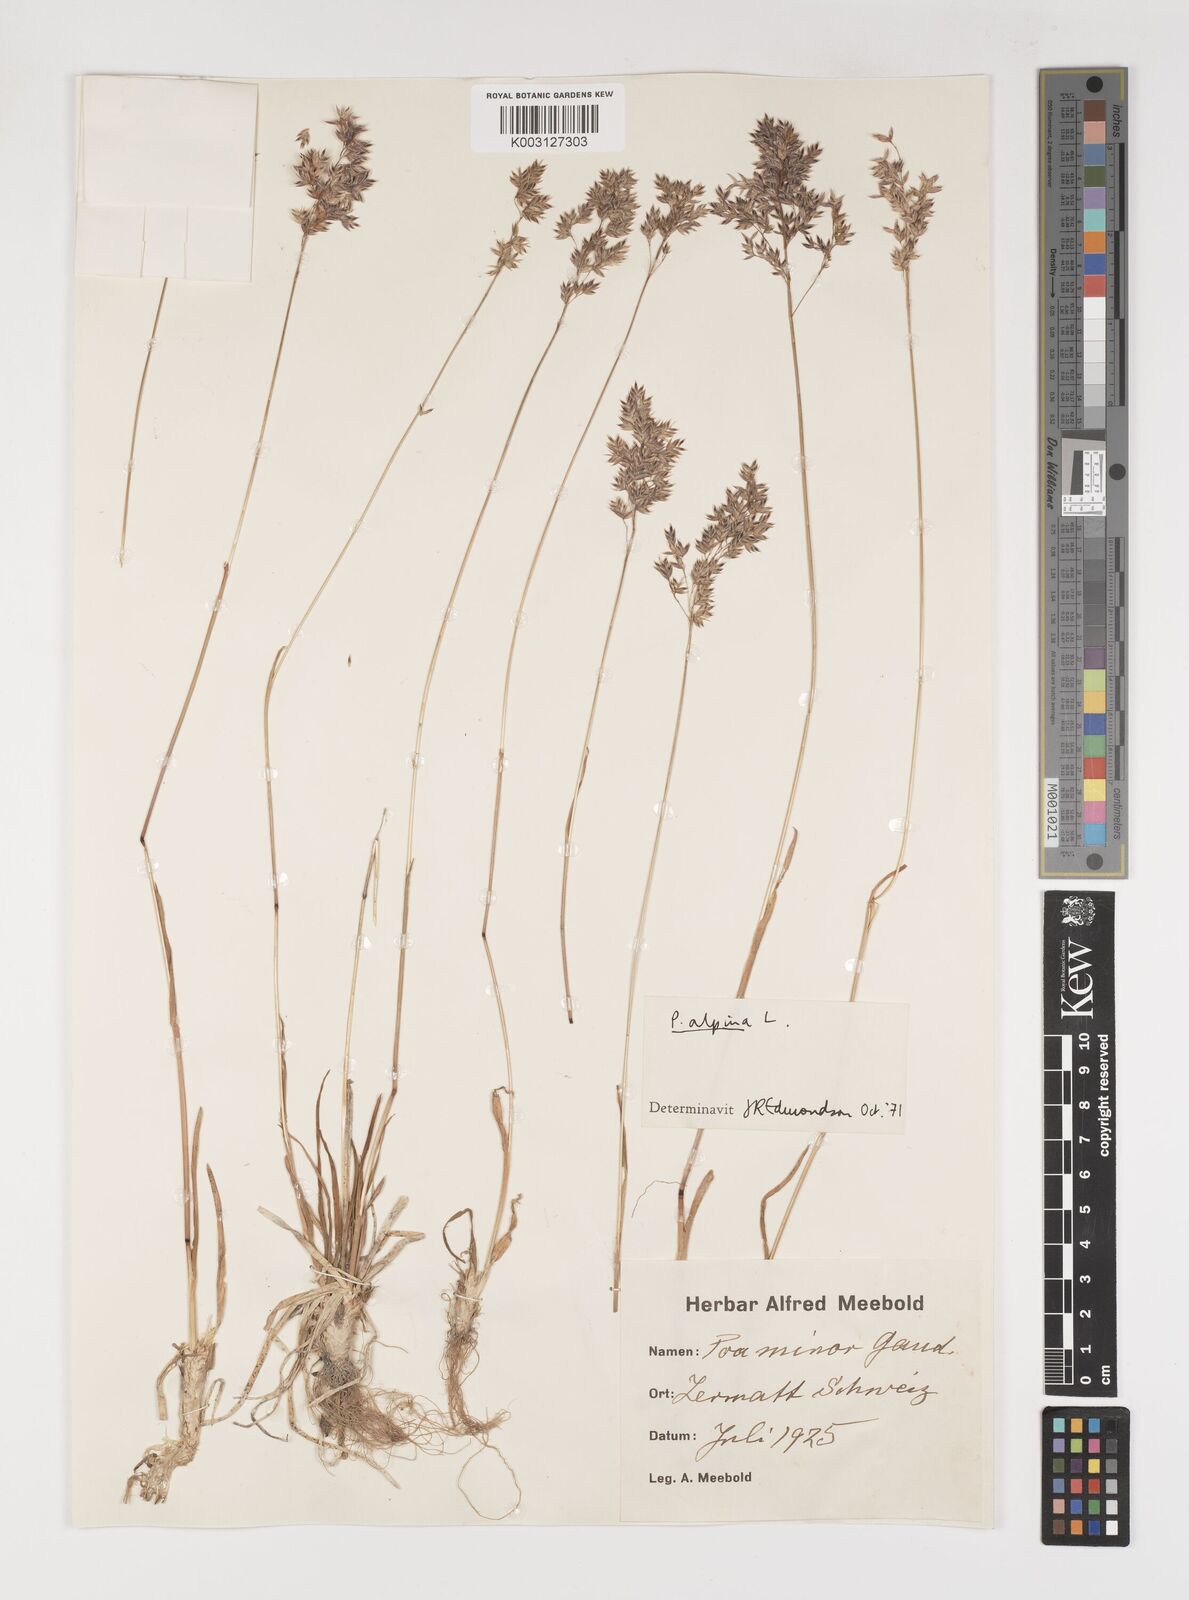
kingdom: Plantae
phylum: Tracheophyta
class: Liliopsida
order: Poales
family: Poaceae
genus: Poa
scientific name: Poa alpina
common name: Alpine bluegrass
